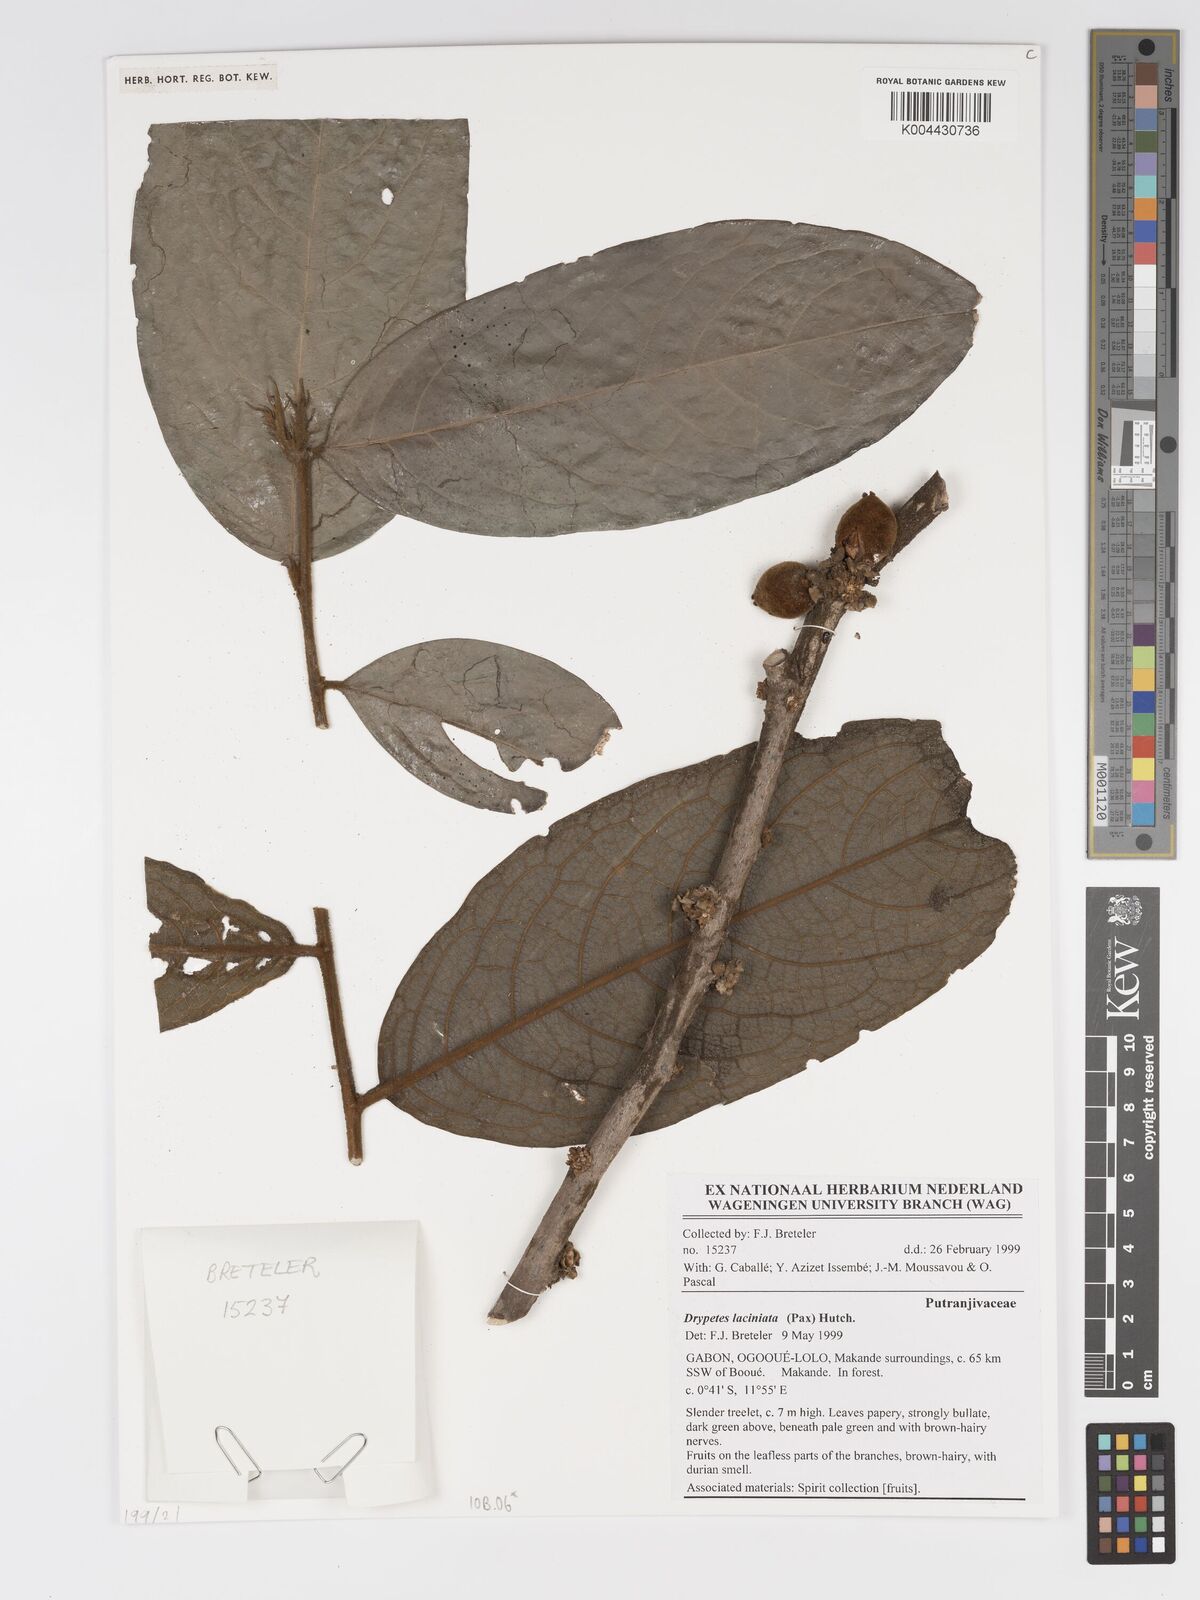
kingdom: Plantae
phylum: Tracheophyta
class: Magnoliopsida
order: Malpighiales
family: Putranjivaceae
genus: Drypetes
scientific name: Drypetes laciniata
